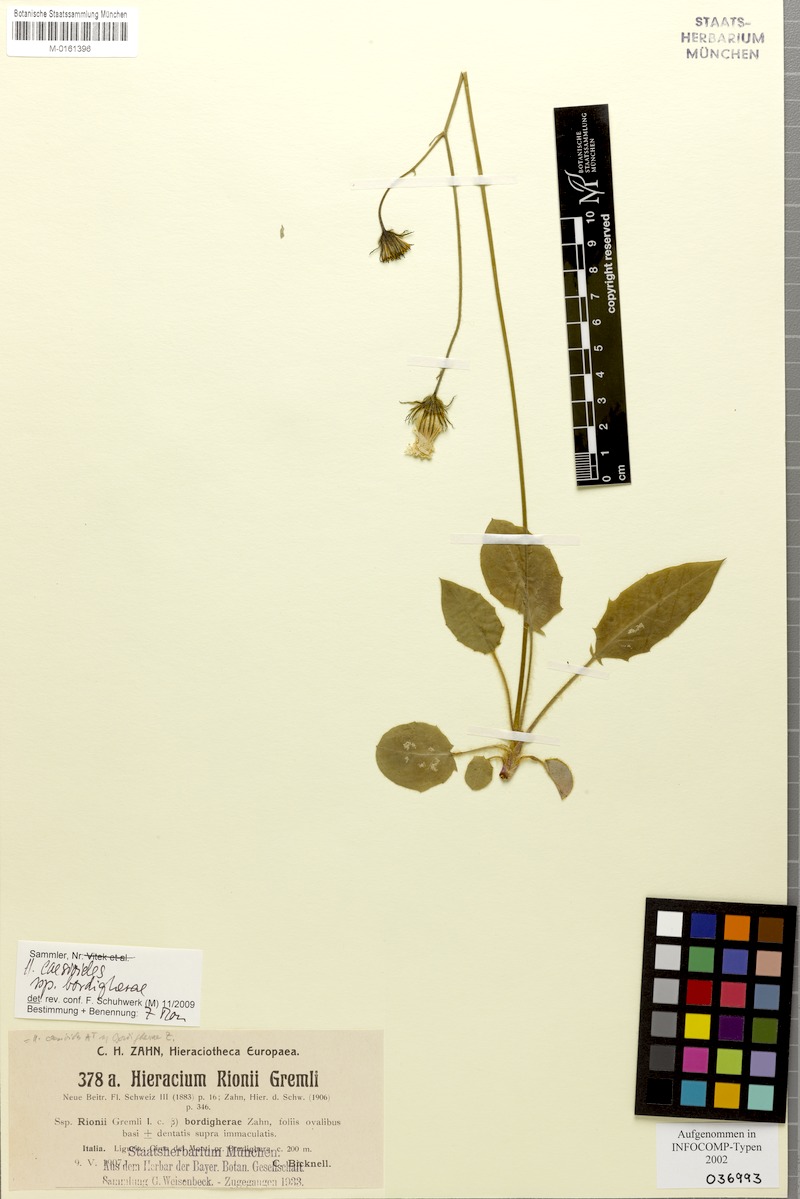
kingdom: Plantae
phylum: Tracheophyta
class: Magnoliopsida
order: Asterales
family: Asteraceae
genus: Hieracium
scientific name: Hieracium caesioides
